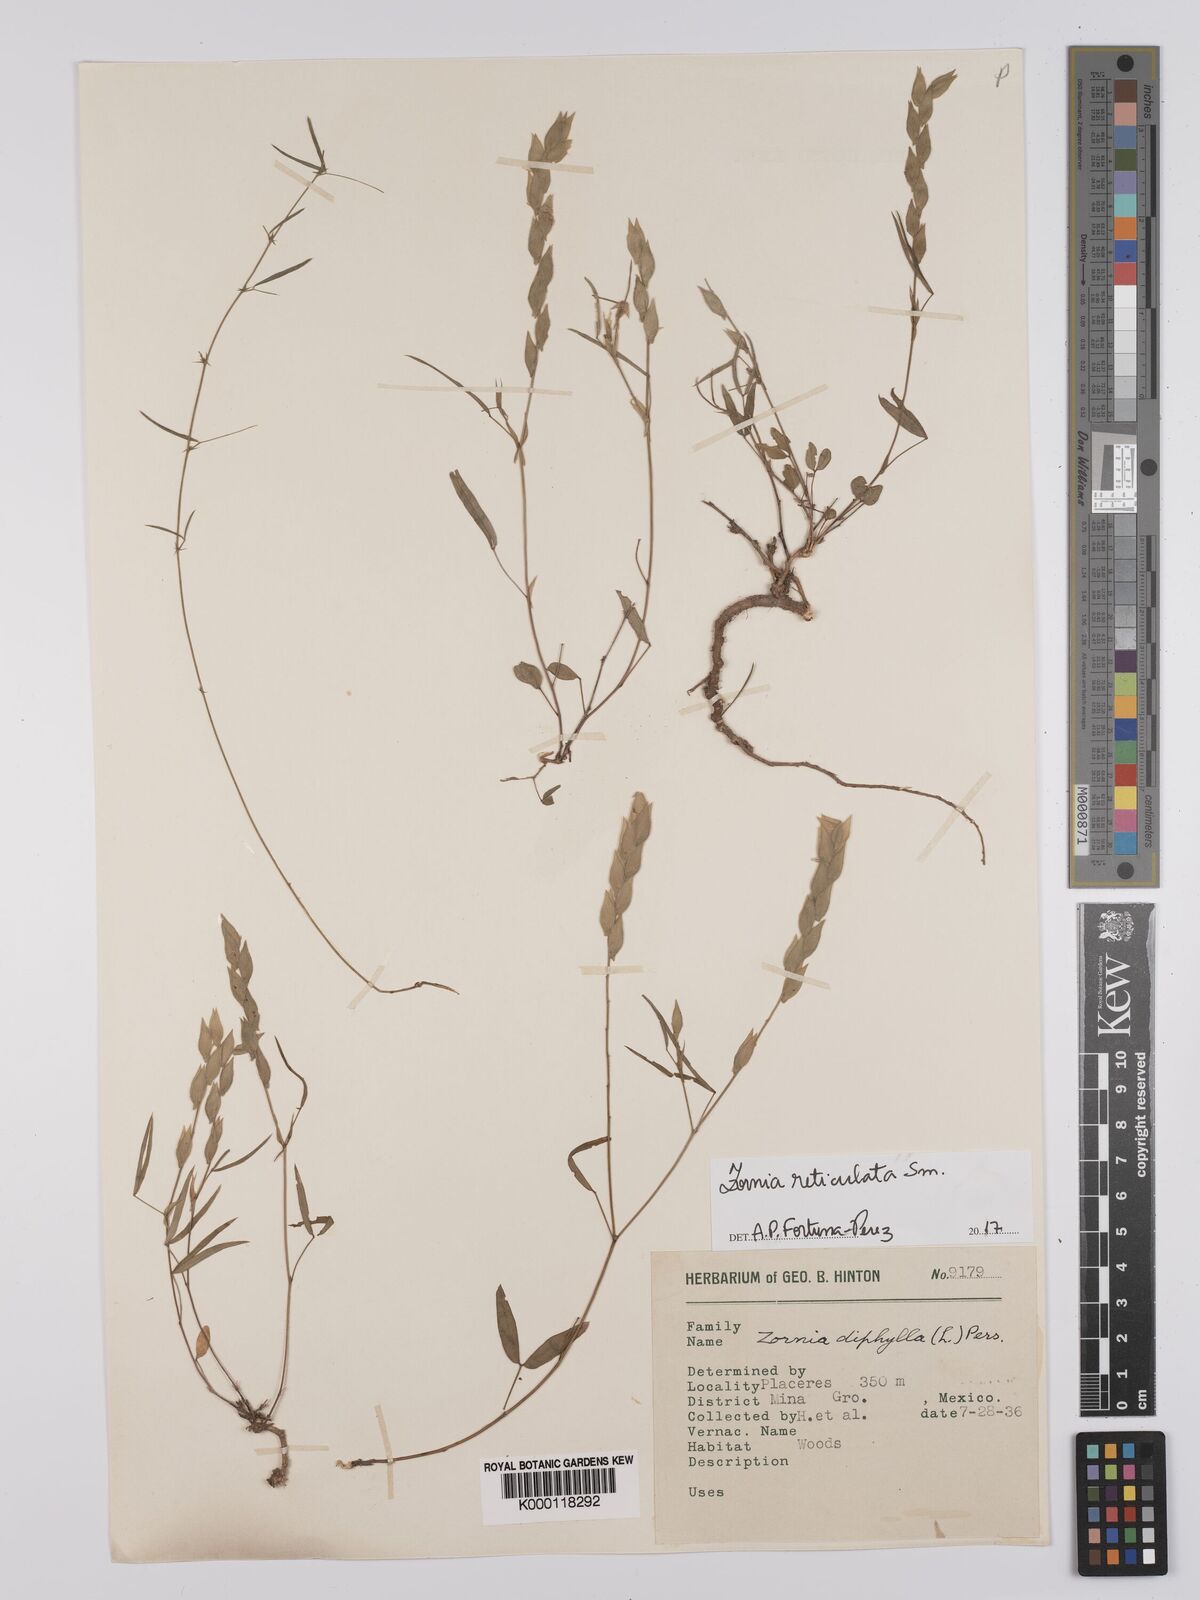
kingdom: Plantae
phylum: Tracheophyta
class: Magnoliopsida
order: Fabales
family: Fabaceae
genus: Zornia
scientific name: Zornia reticulata
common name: Reticulate viperina
